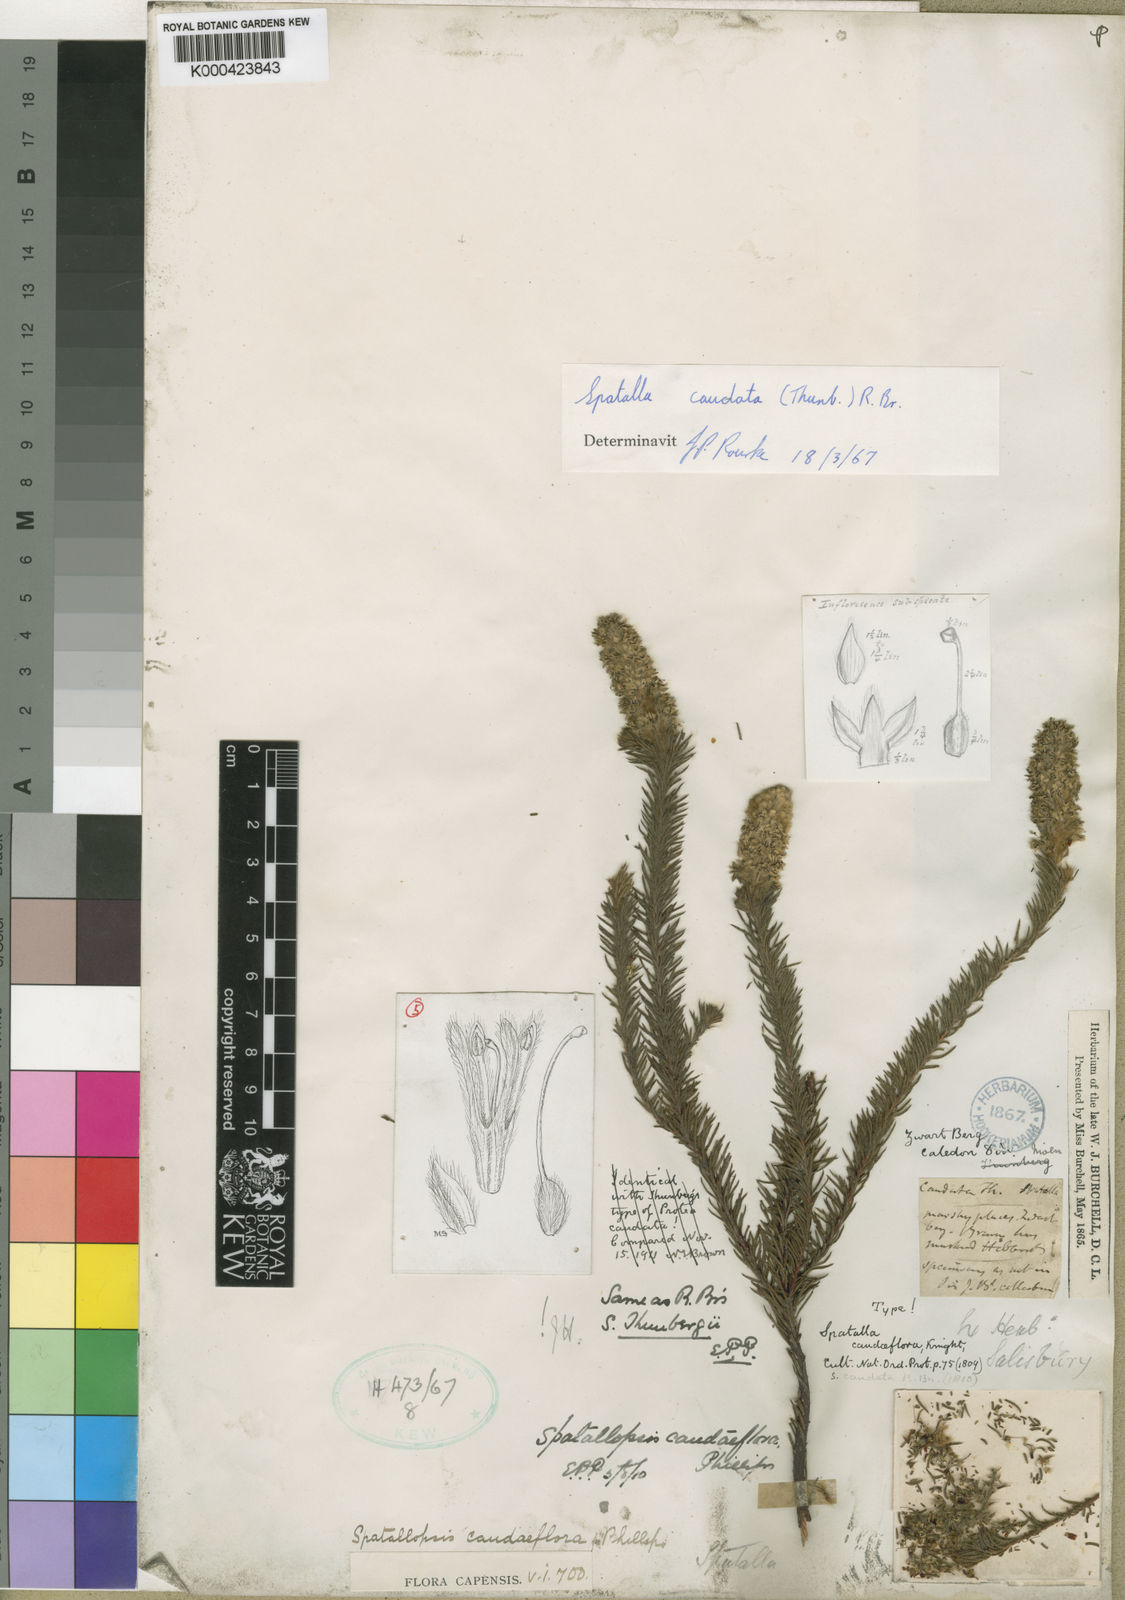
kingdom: Plantae
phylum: Tracheophyta
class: Magnoliopsida
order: Proteales
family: Proteaceae
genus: Spatalla
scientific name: Spatalla caudata
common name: Woolly-hair spoon
